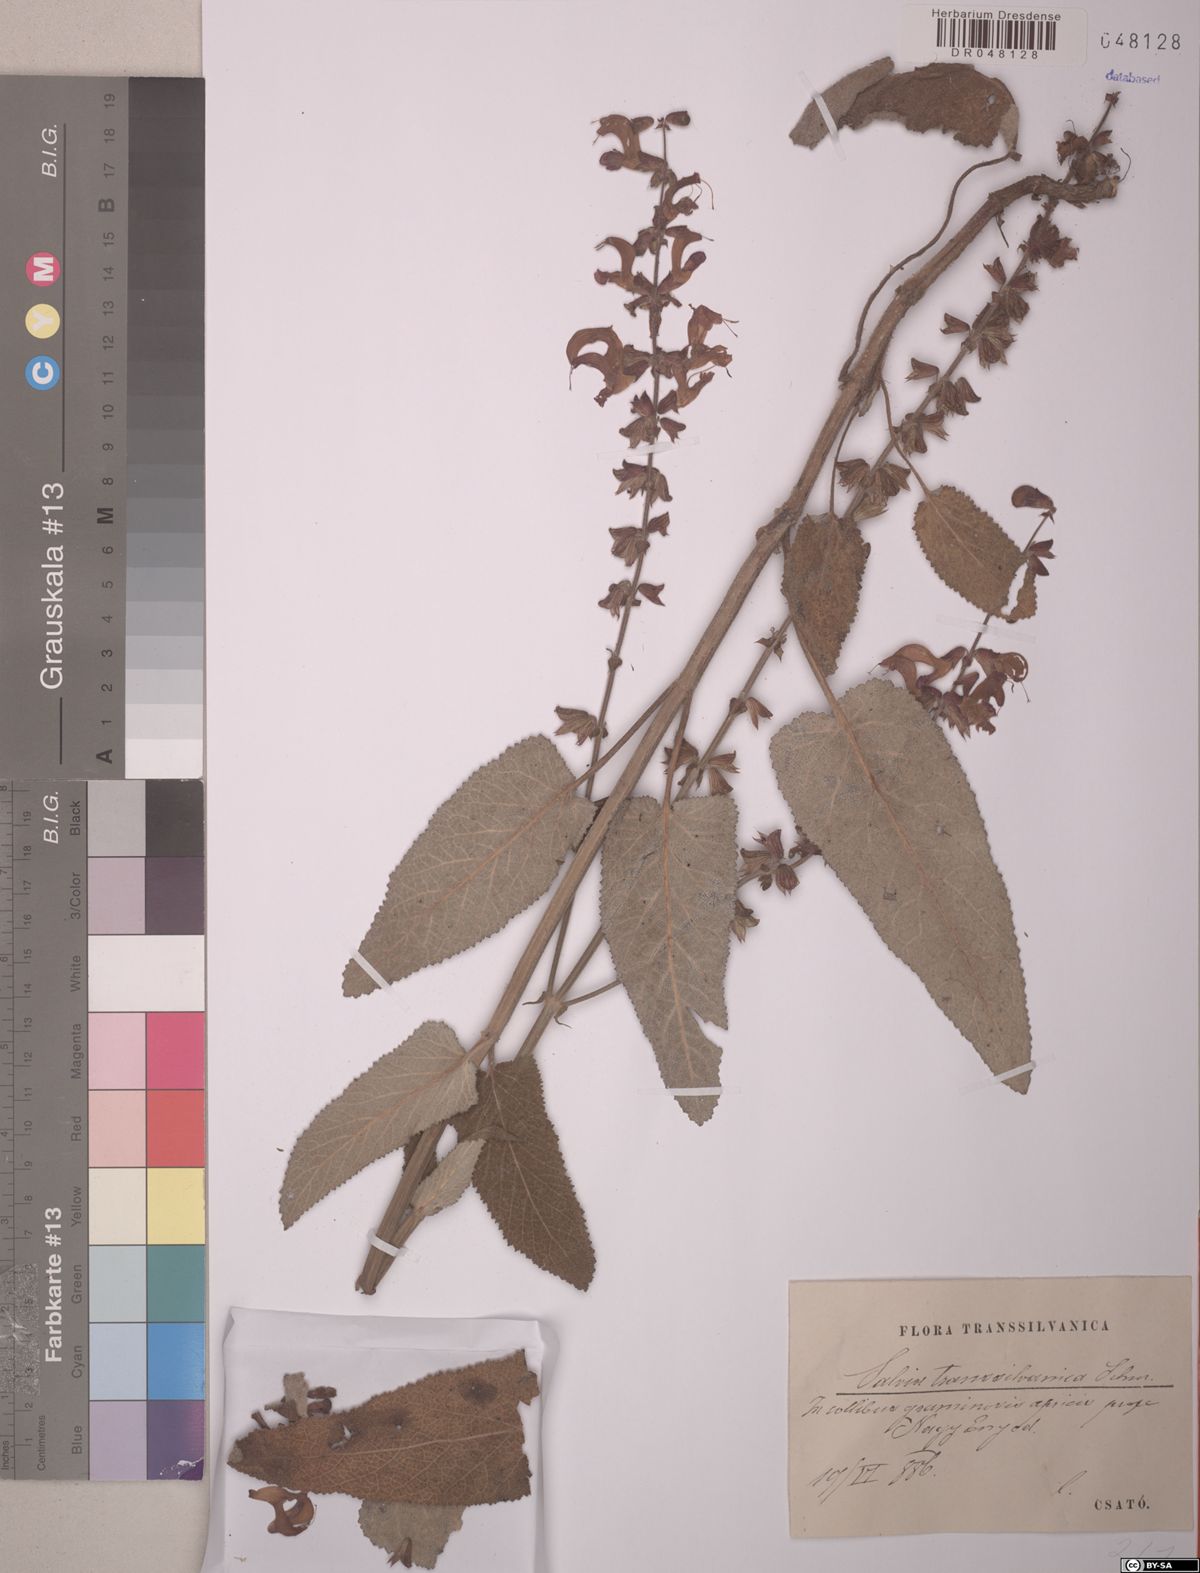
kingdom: Plantae
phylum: Tracheophyta
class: Magnoliopsida
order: Lamiales
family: Lamiaceae
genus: Salvia
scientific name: Salvia transsylvanica
